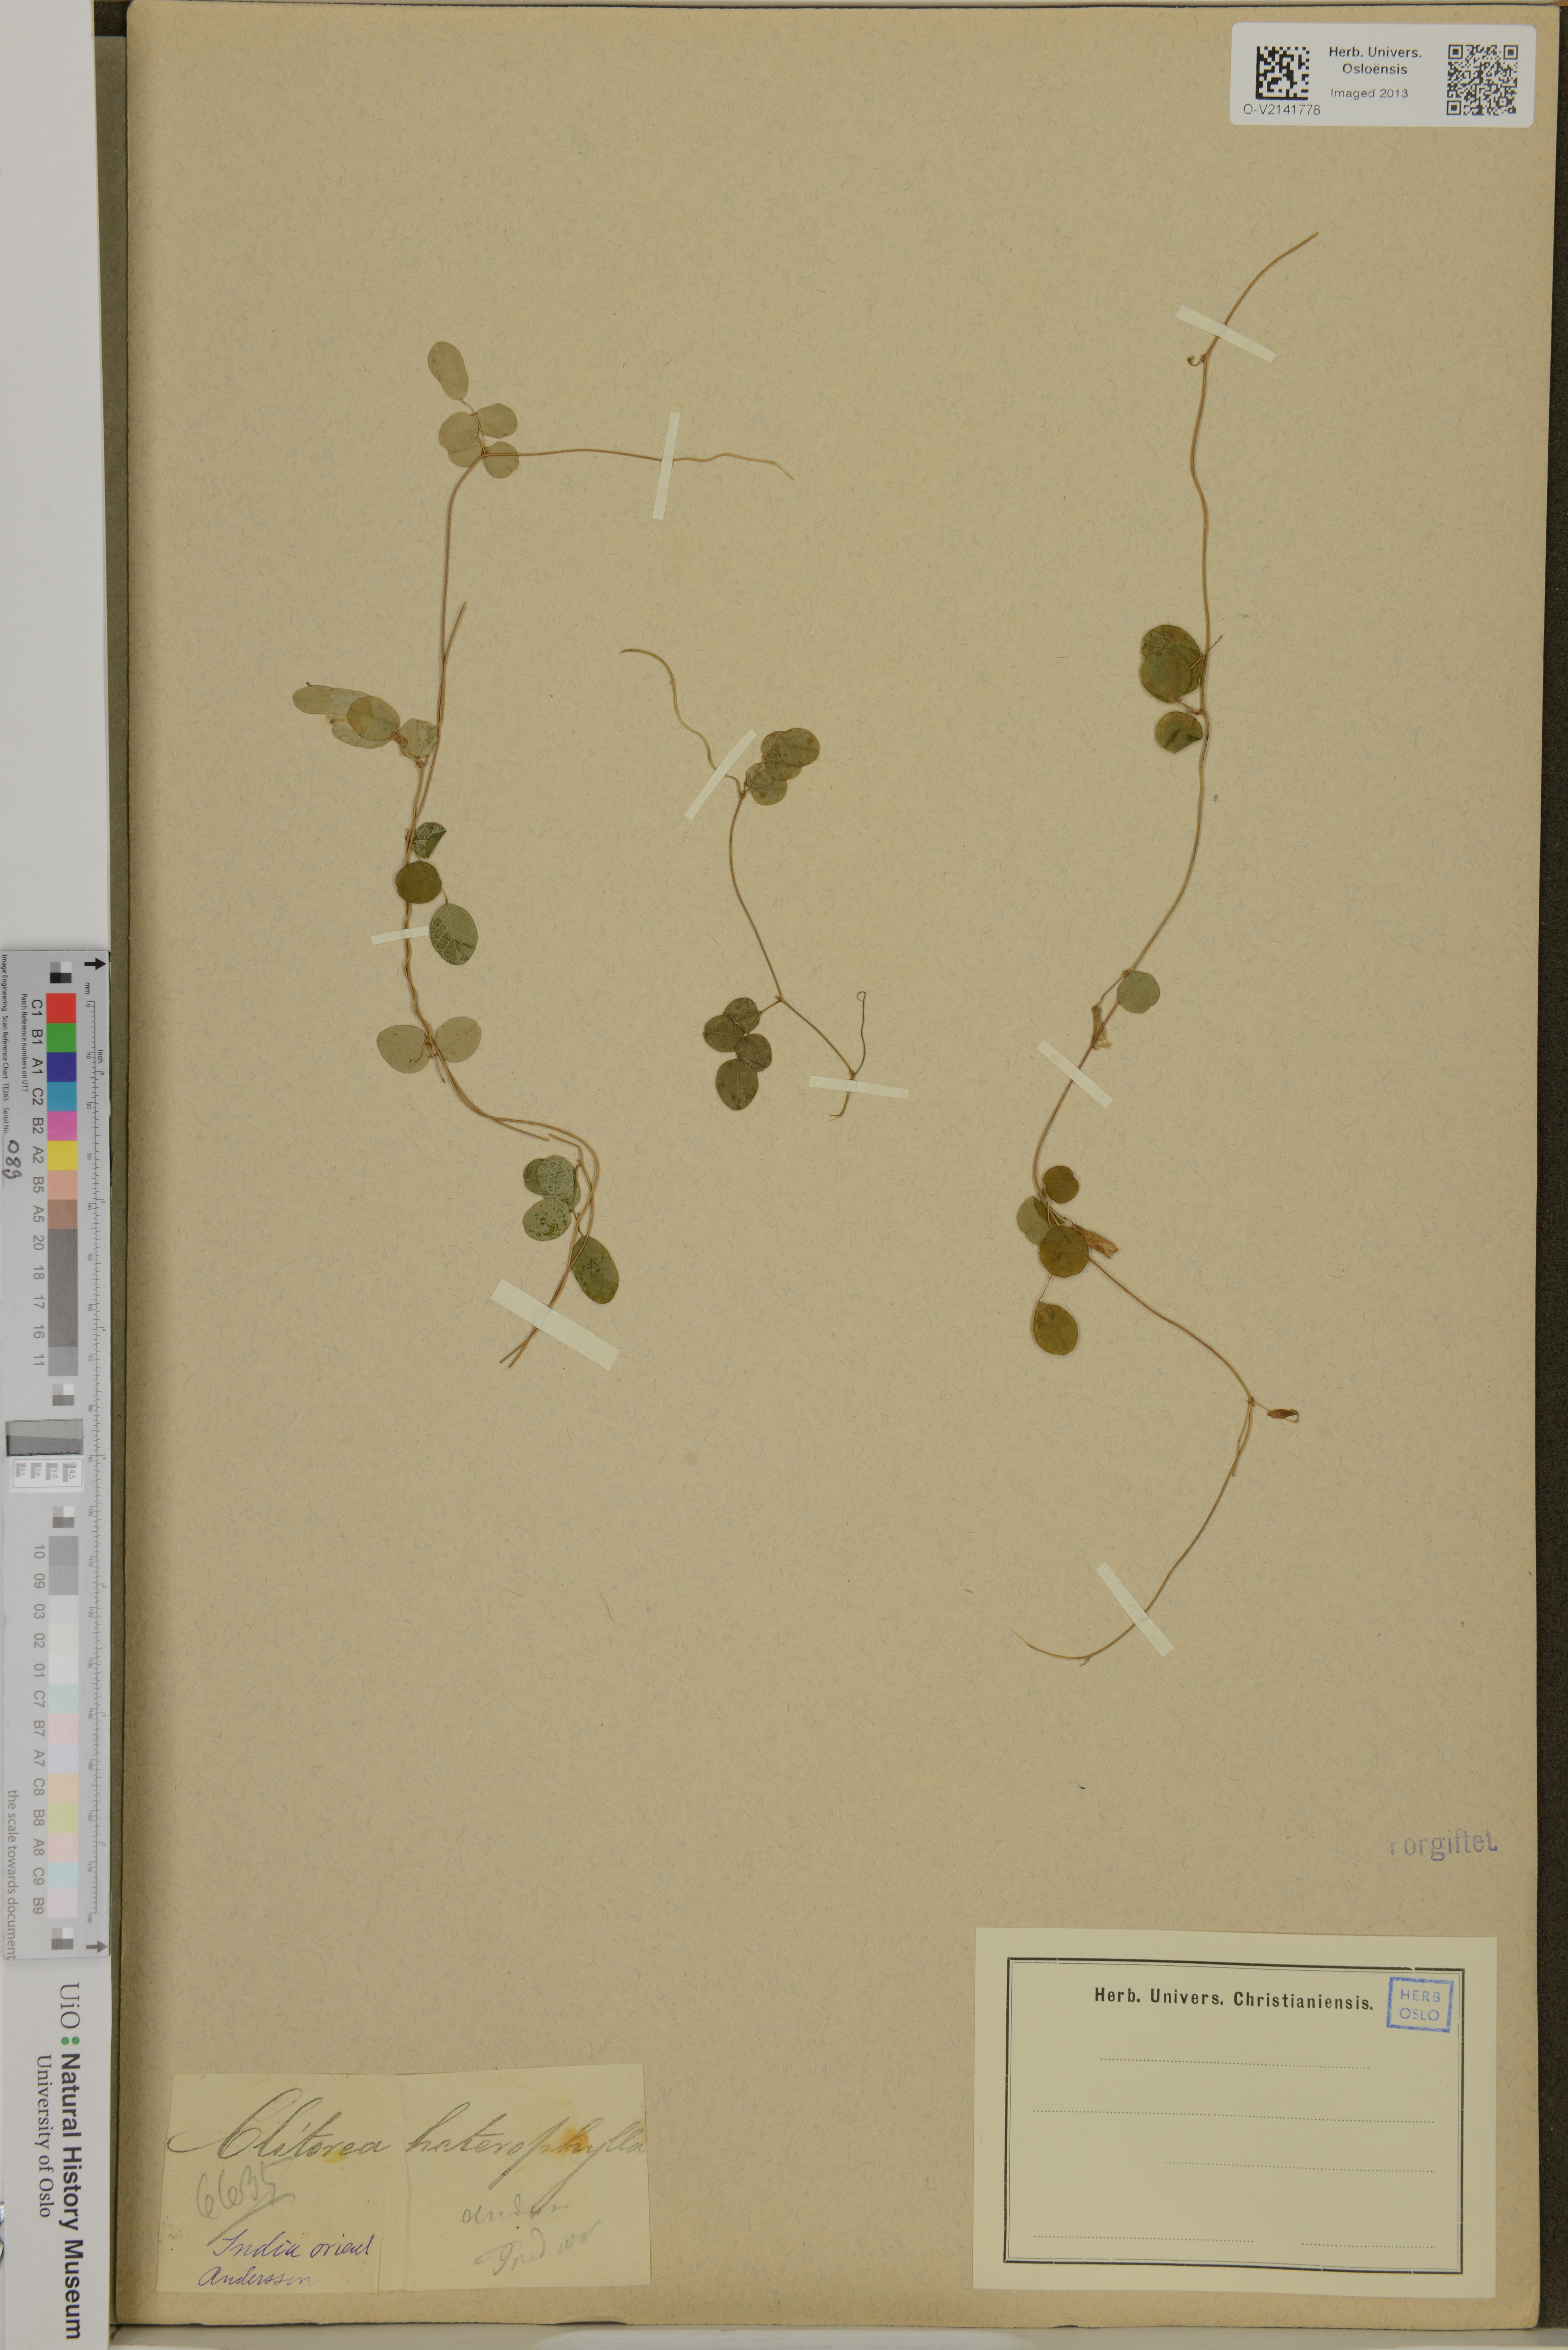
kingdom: Plantae
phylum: Tracheophyta
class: Magnoliopsida
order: Fabales
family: Fabaceae
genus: Clitoria
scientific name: Clitoria heterophylla
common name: Pigeonwings
